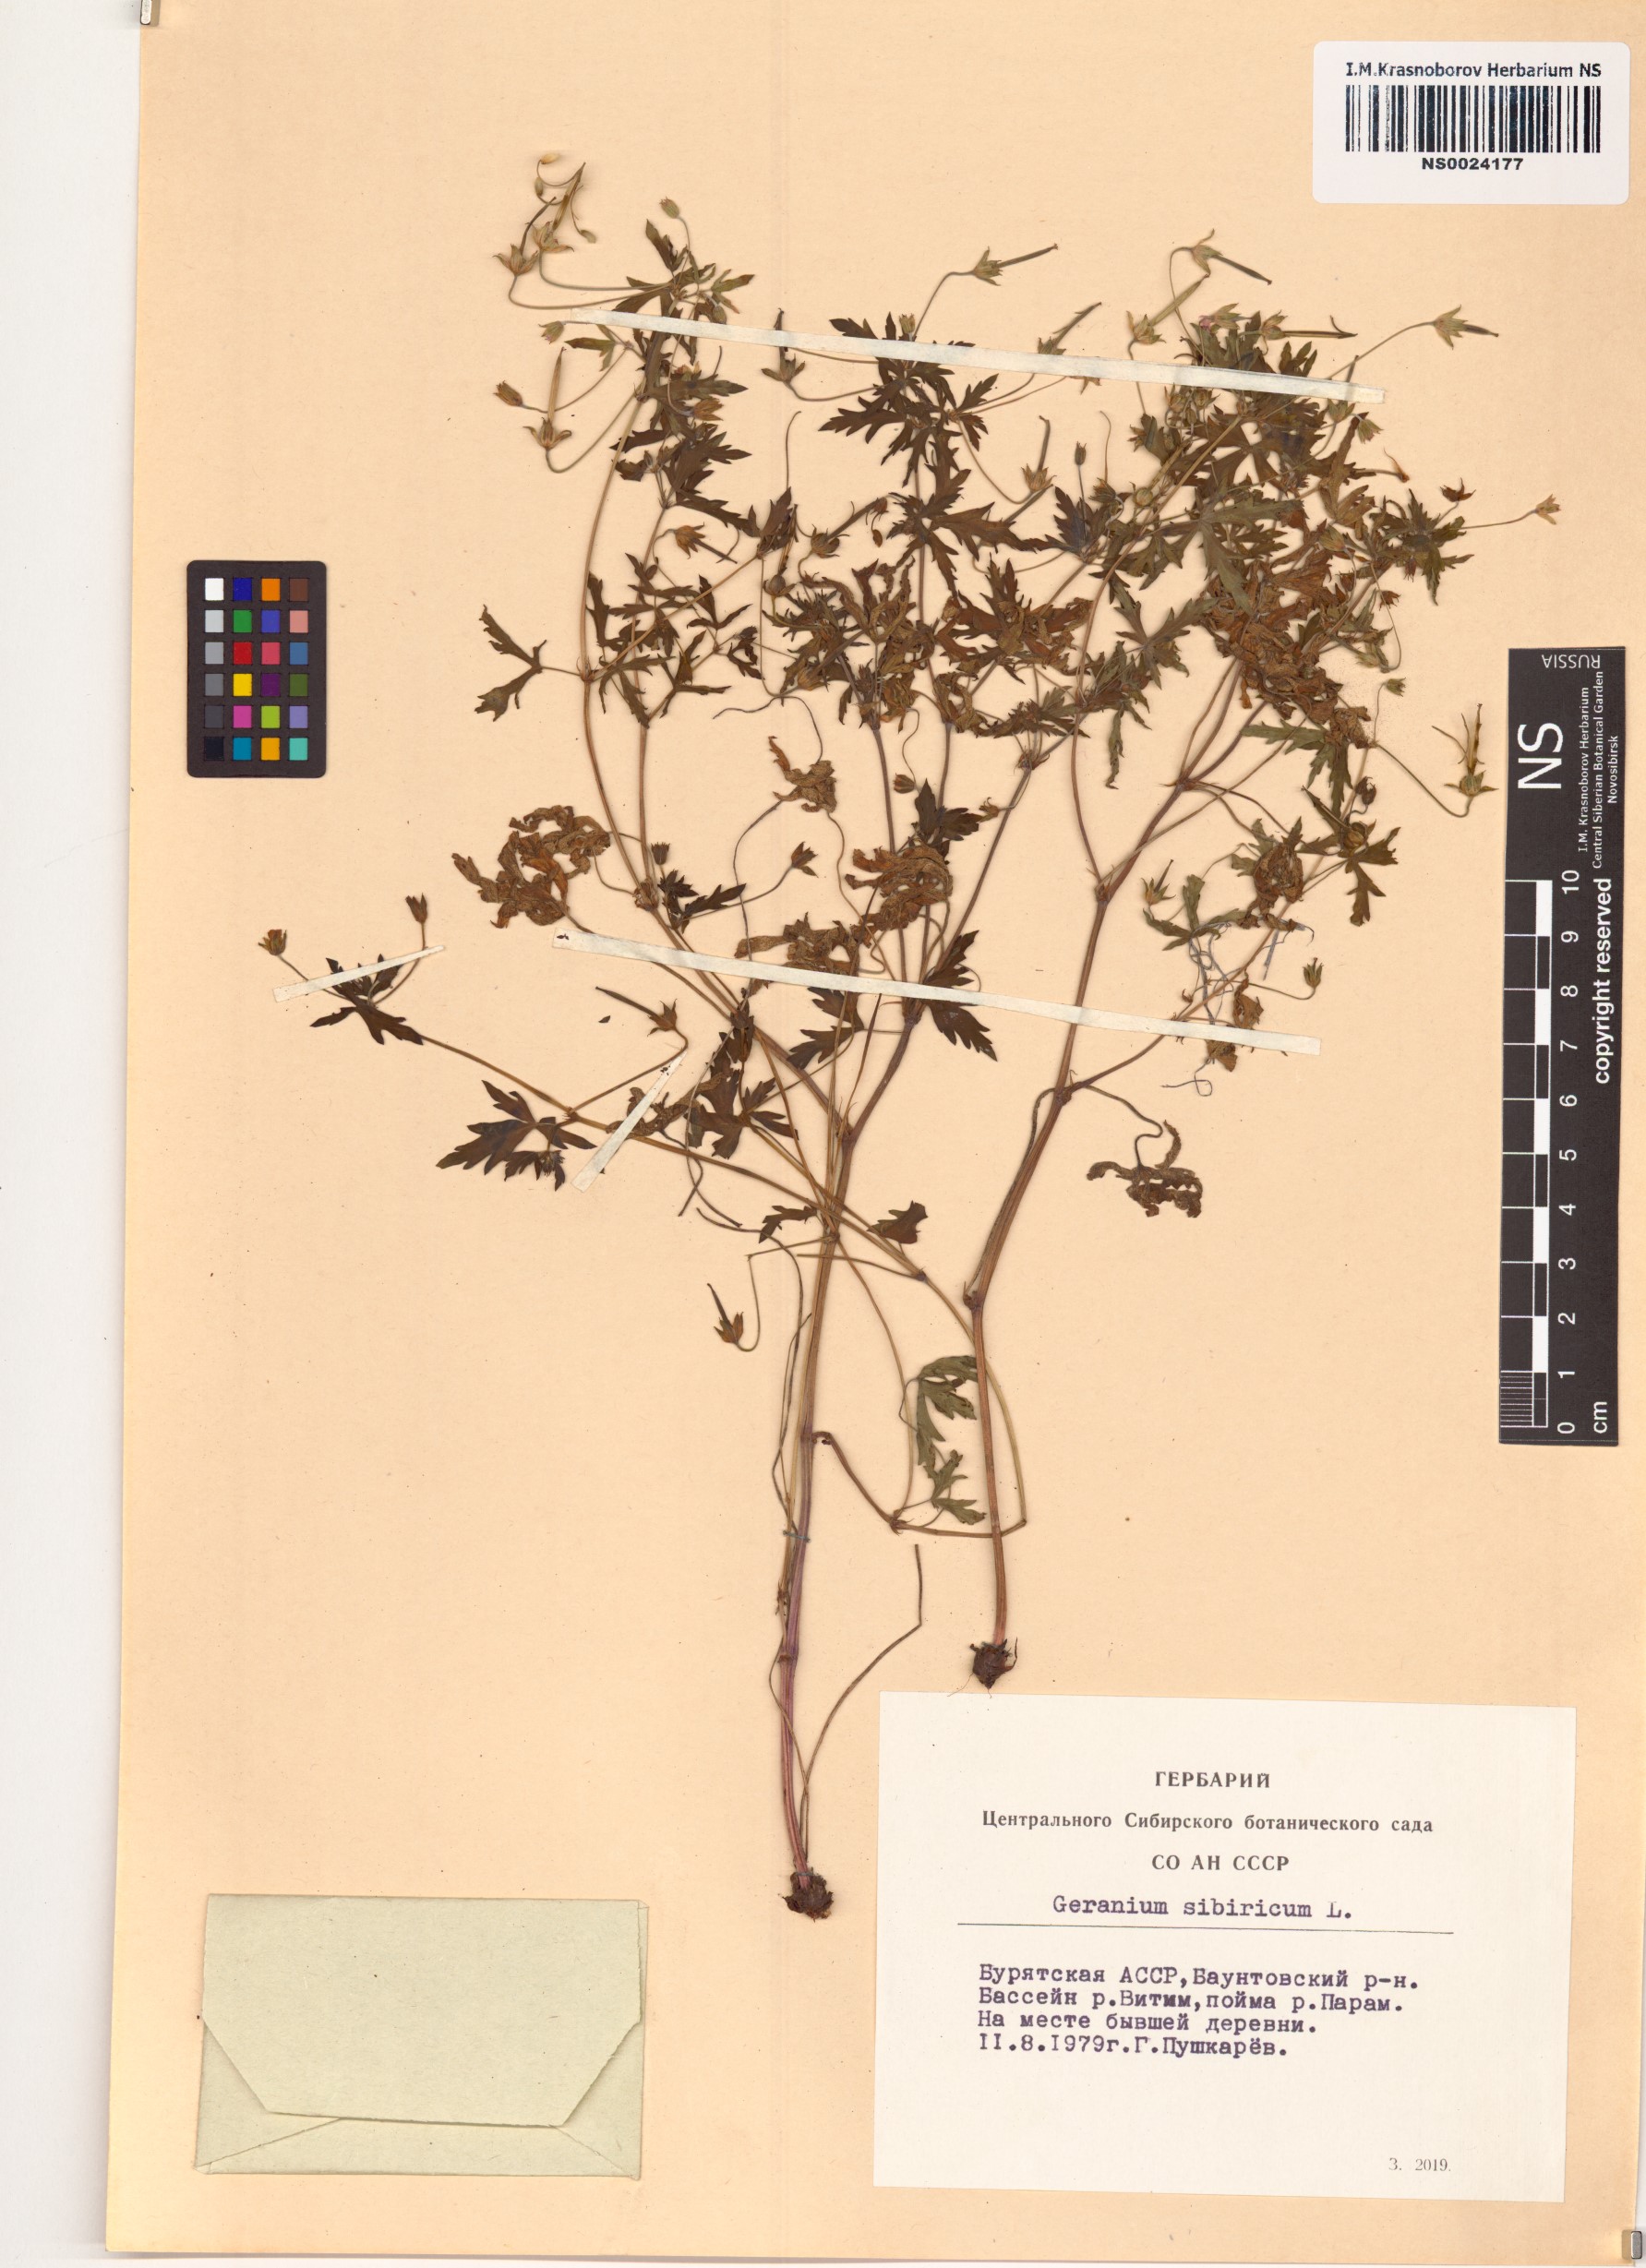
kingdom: Plantae
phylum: Tracheophyta
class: Magnoliopsida
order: Geraniales
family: Geraniaceae
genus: Geranium
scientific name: Geranium sibiricum
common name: Siberian crane's-bill
